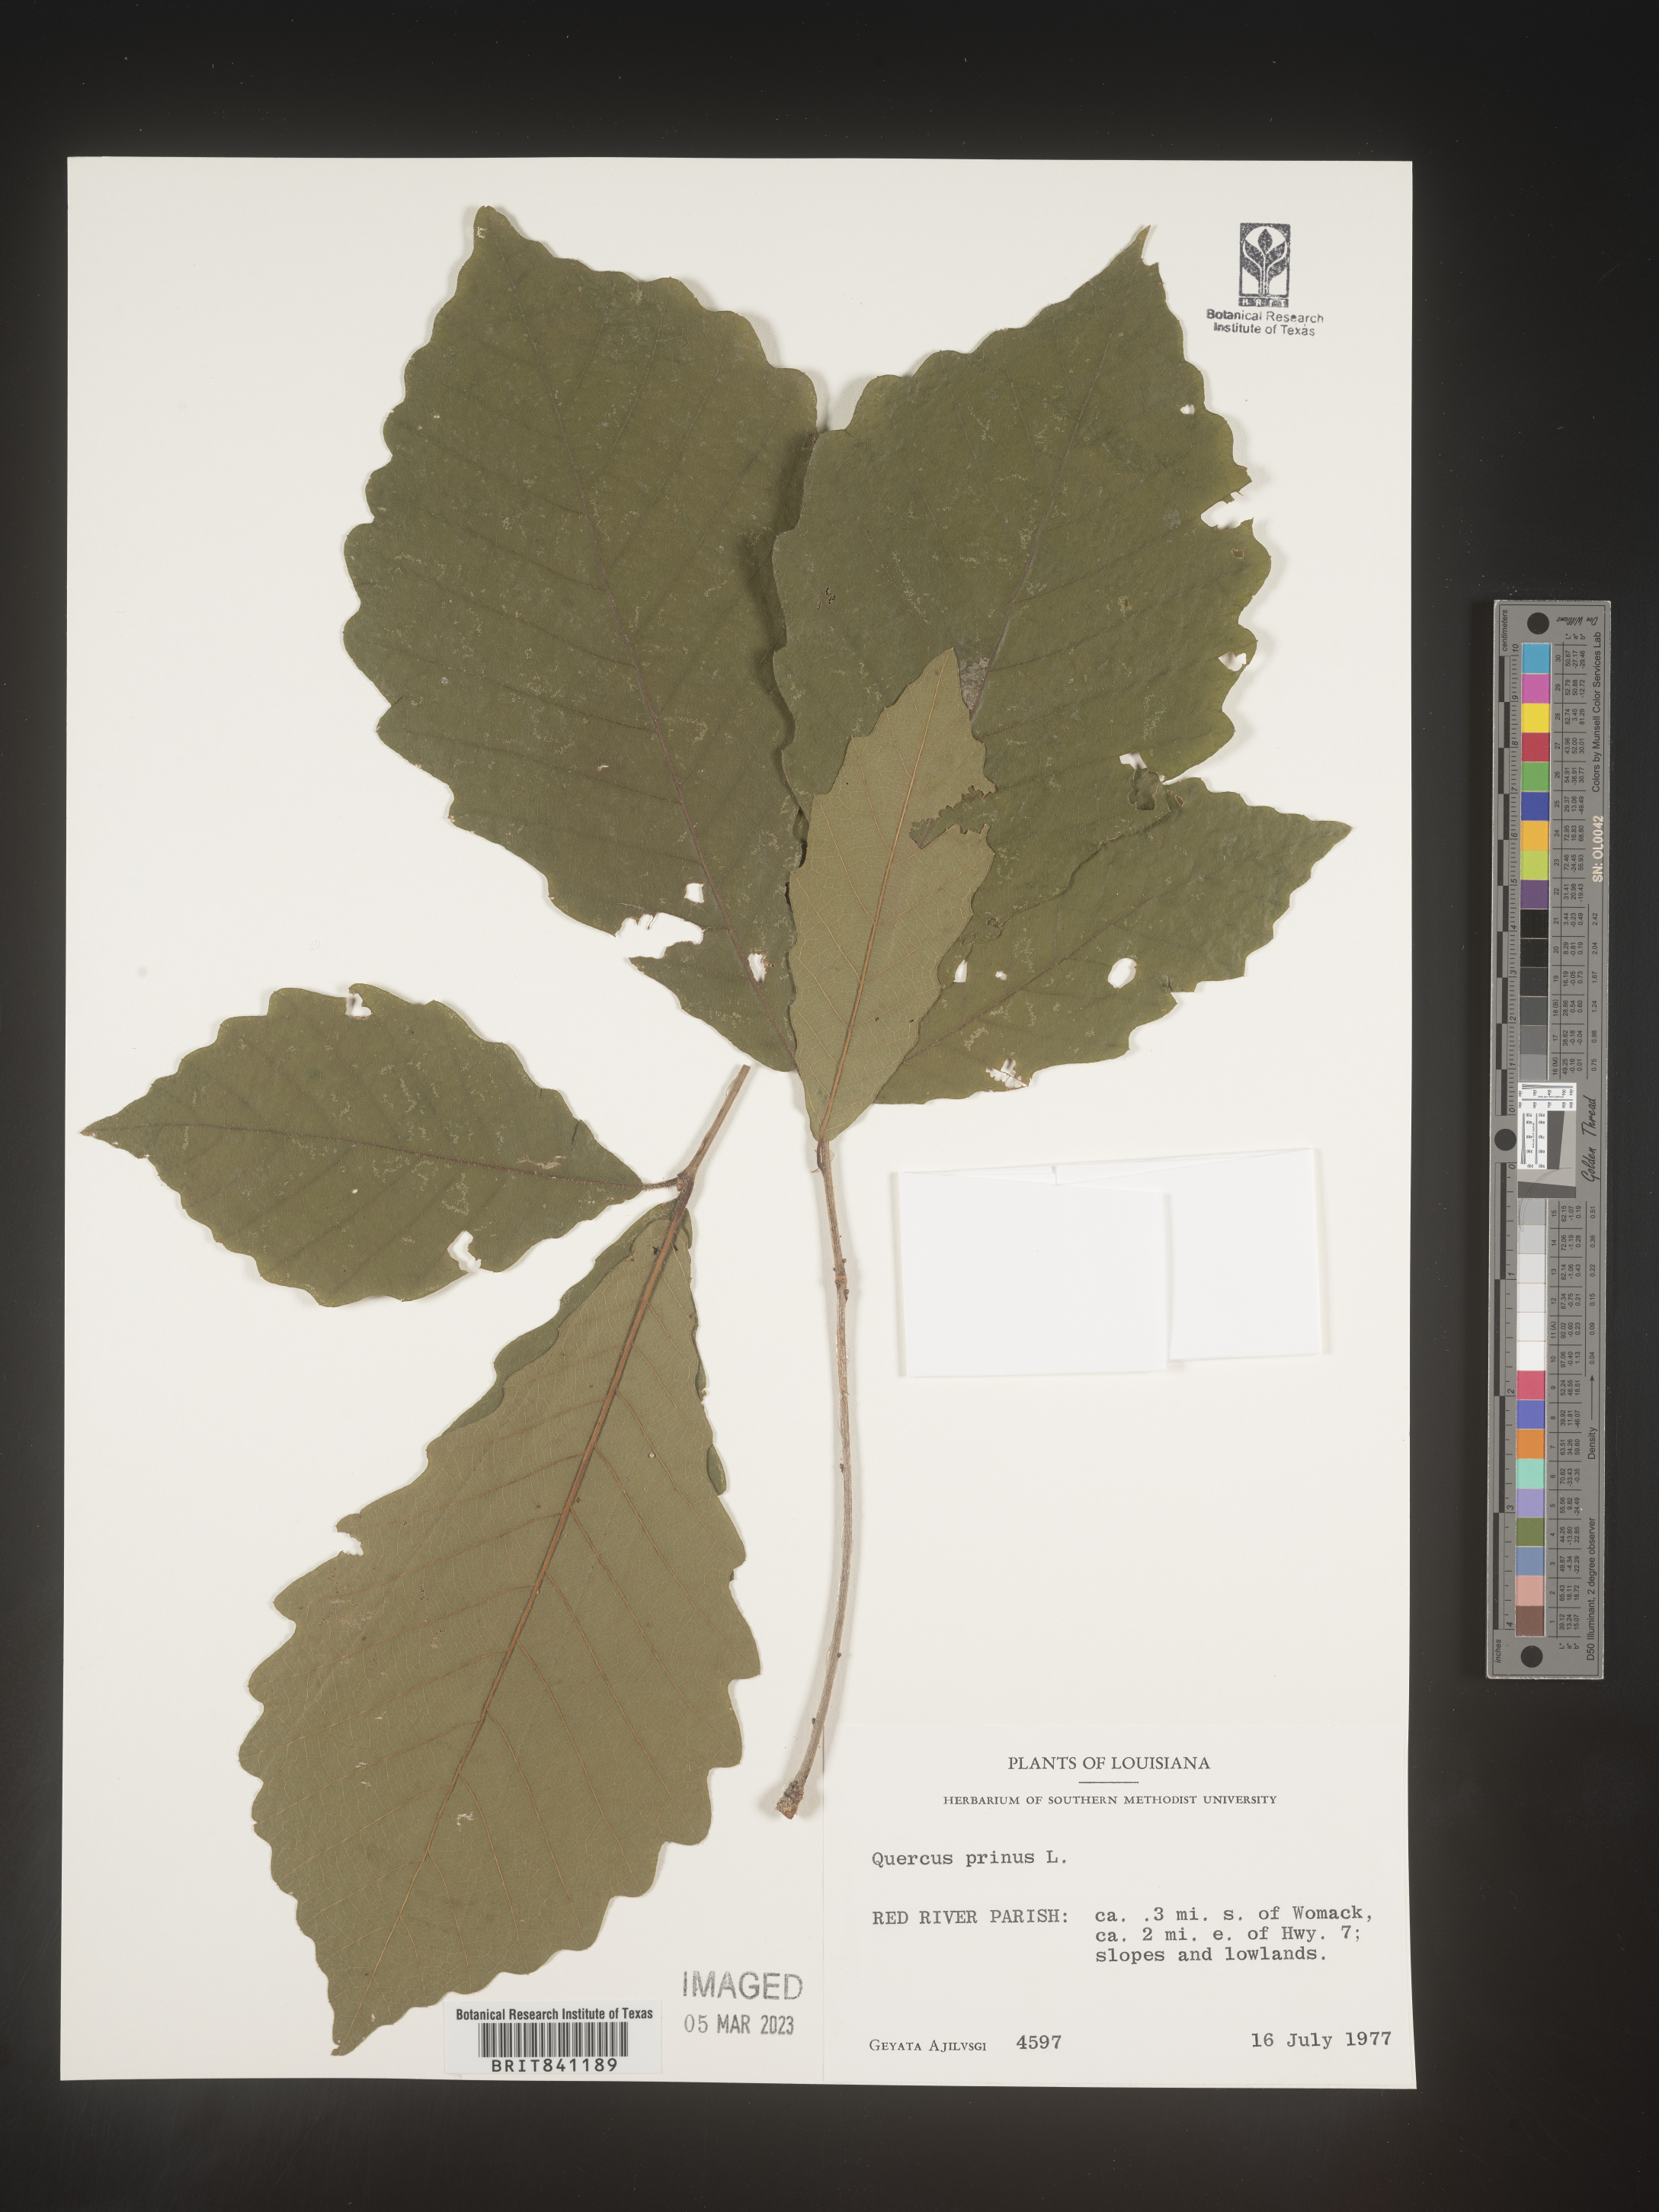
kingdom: Plantae
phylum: Tracheophyta
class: Magnoliopsida
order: Fagales
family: Fagaceae
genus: Quercus
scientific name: Quercus michauxii
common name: Swamp chestnut oak
